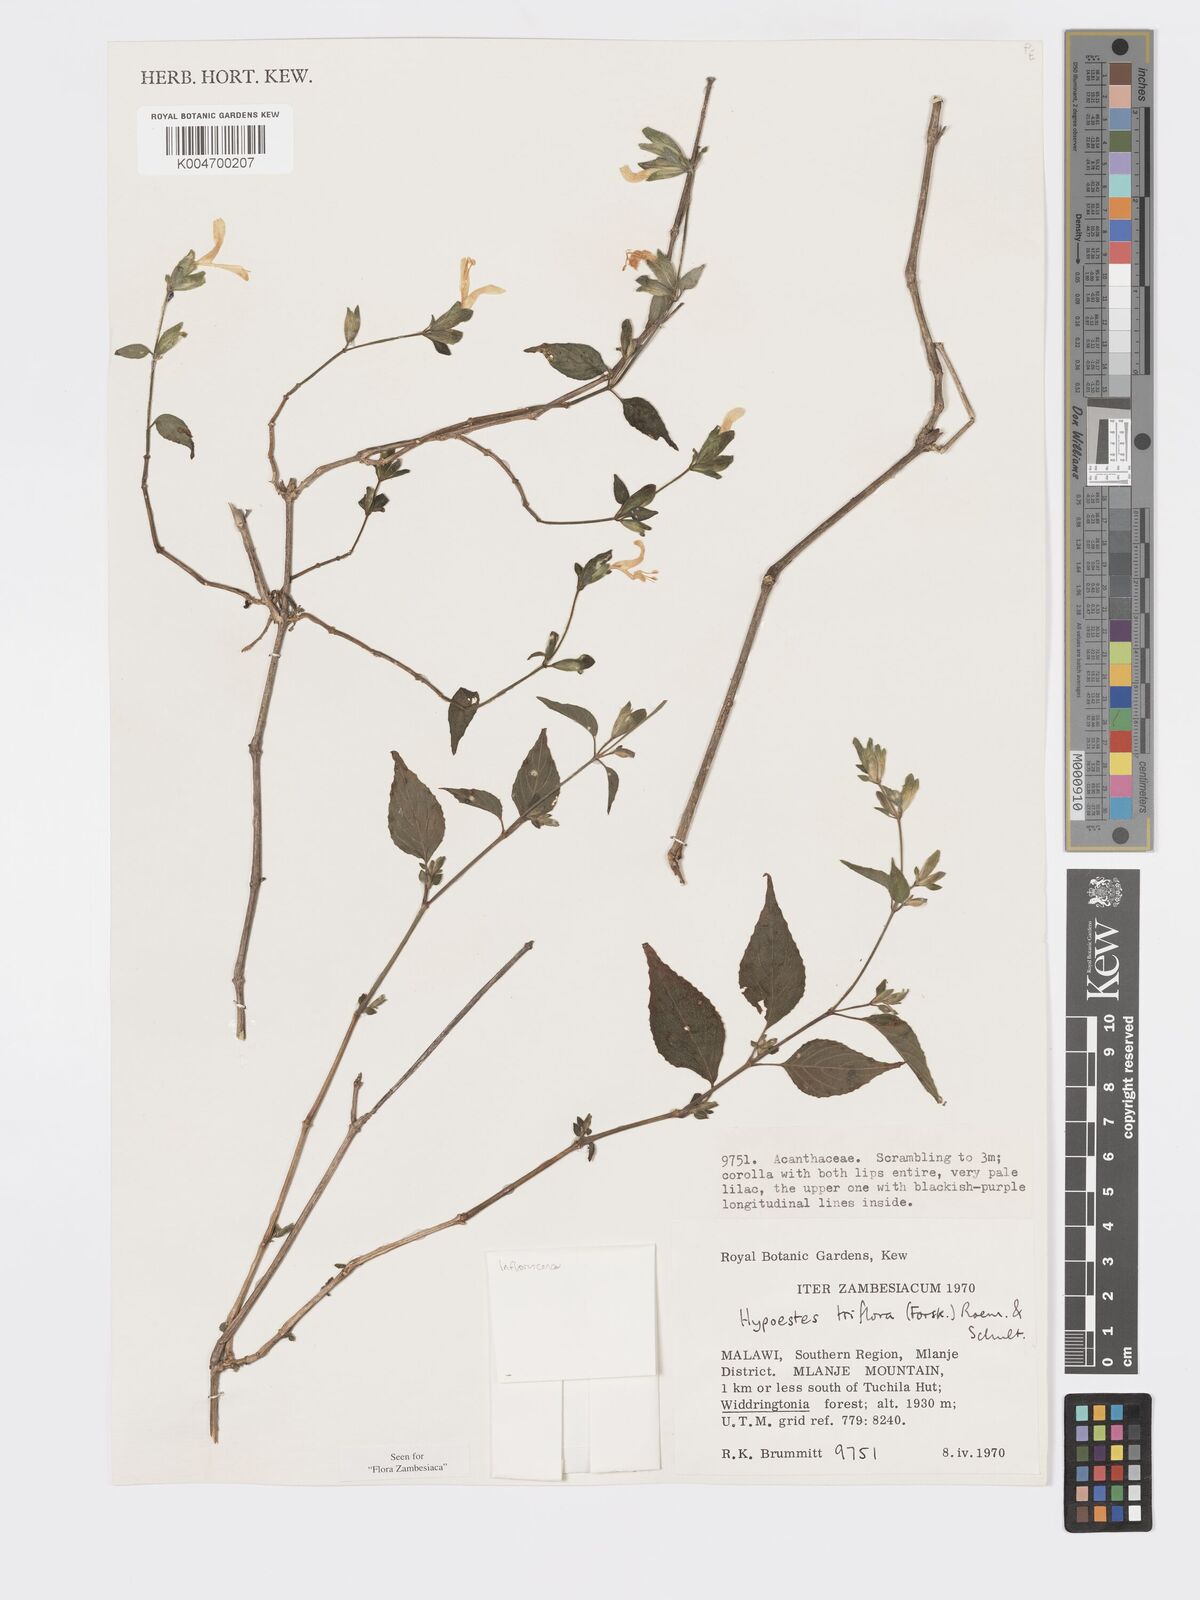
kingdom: Plantae
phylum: Tracheophyta
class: Magnoliopsida
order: Lamiales
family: Acanthaceae
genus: Hypoestes
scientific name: Hypoestes triflora
